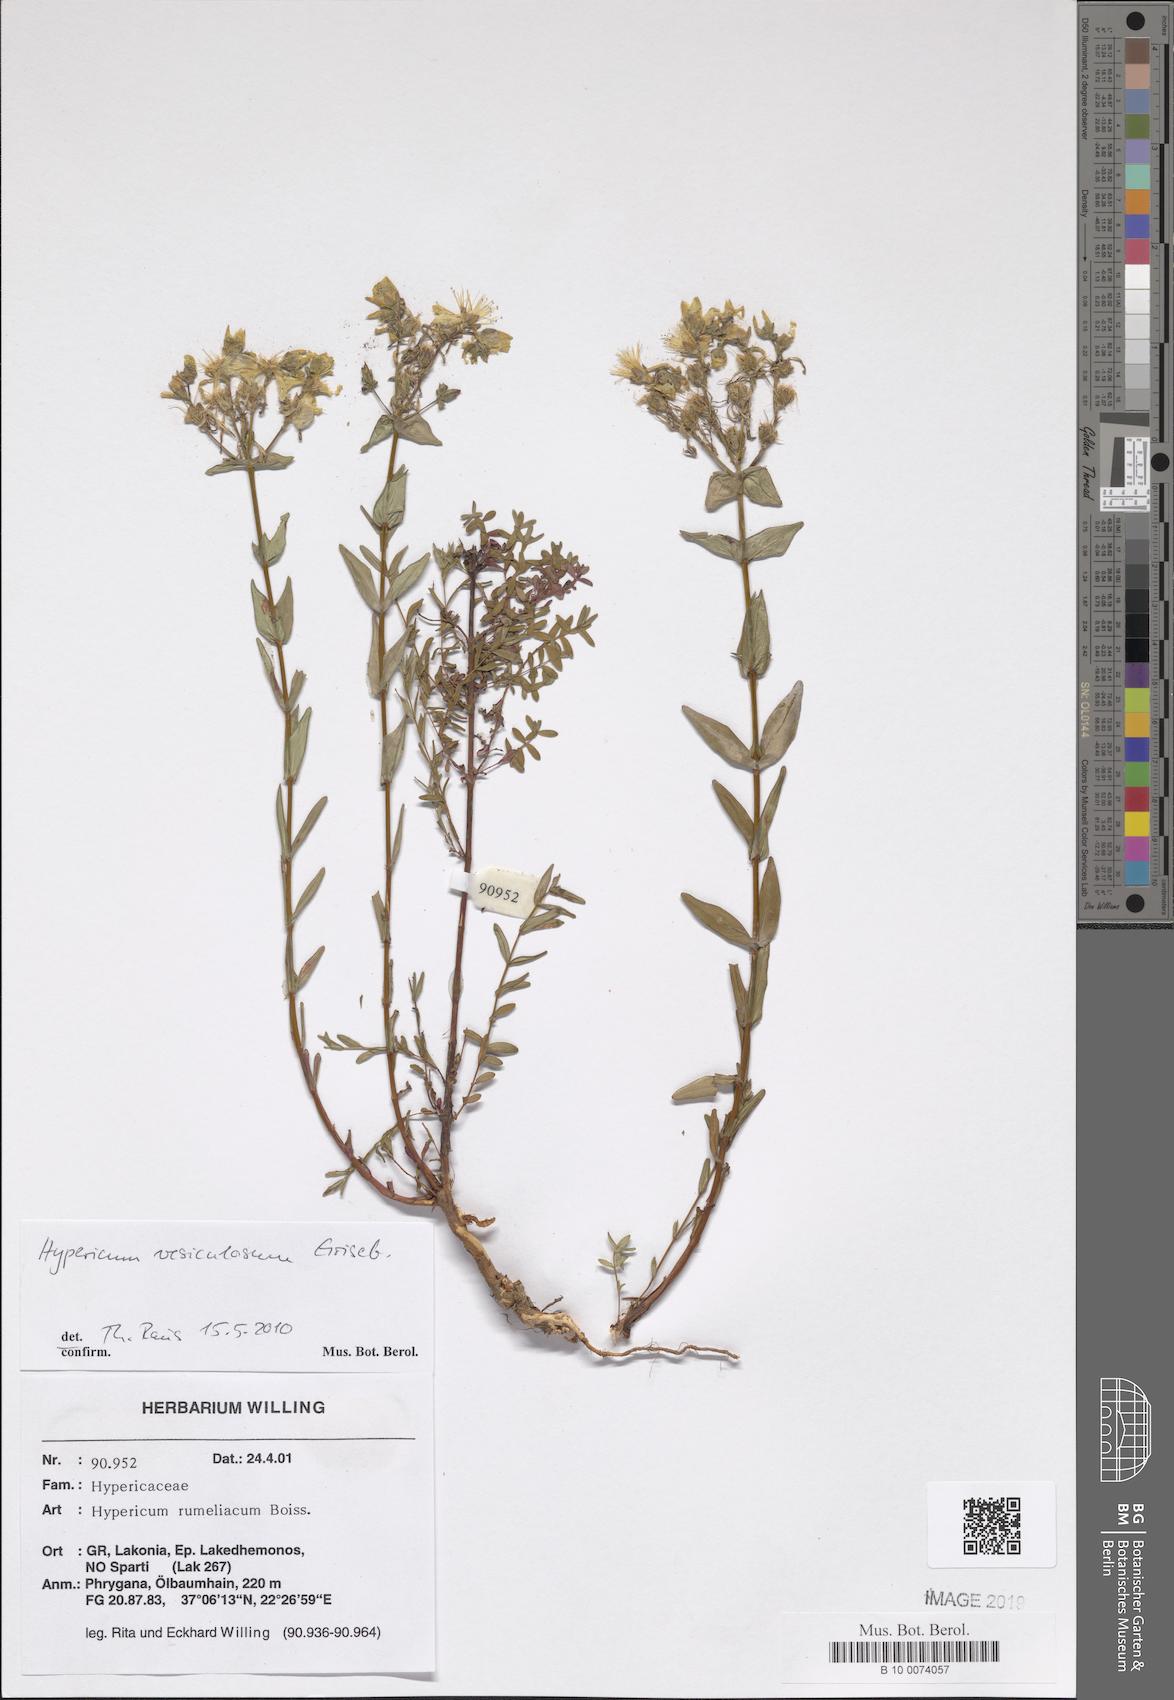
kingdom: Plantae
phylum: Tracheophyta
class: Magnoliopsida
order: Malpighiales
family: Hypericaceae
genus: Hypericum
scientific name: Hypericum perfoliatum
